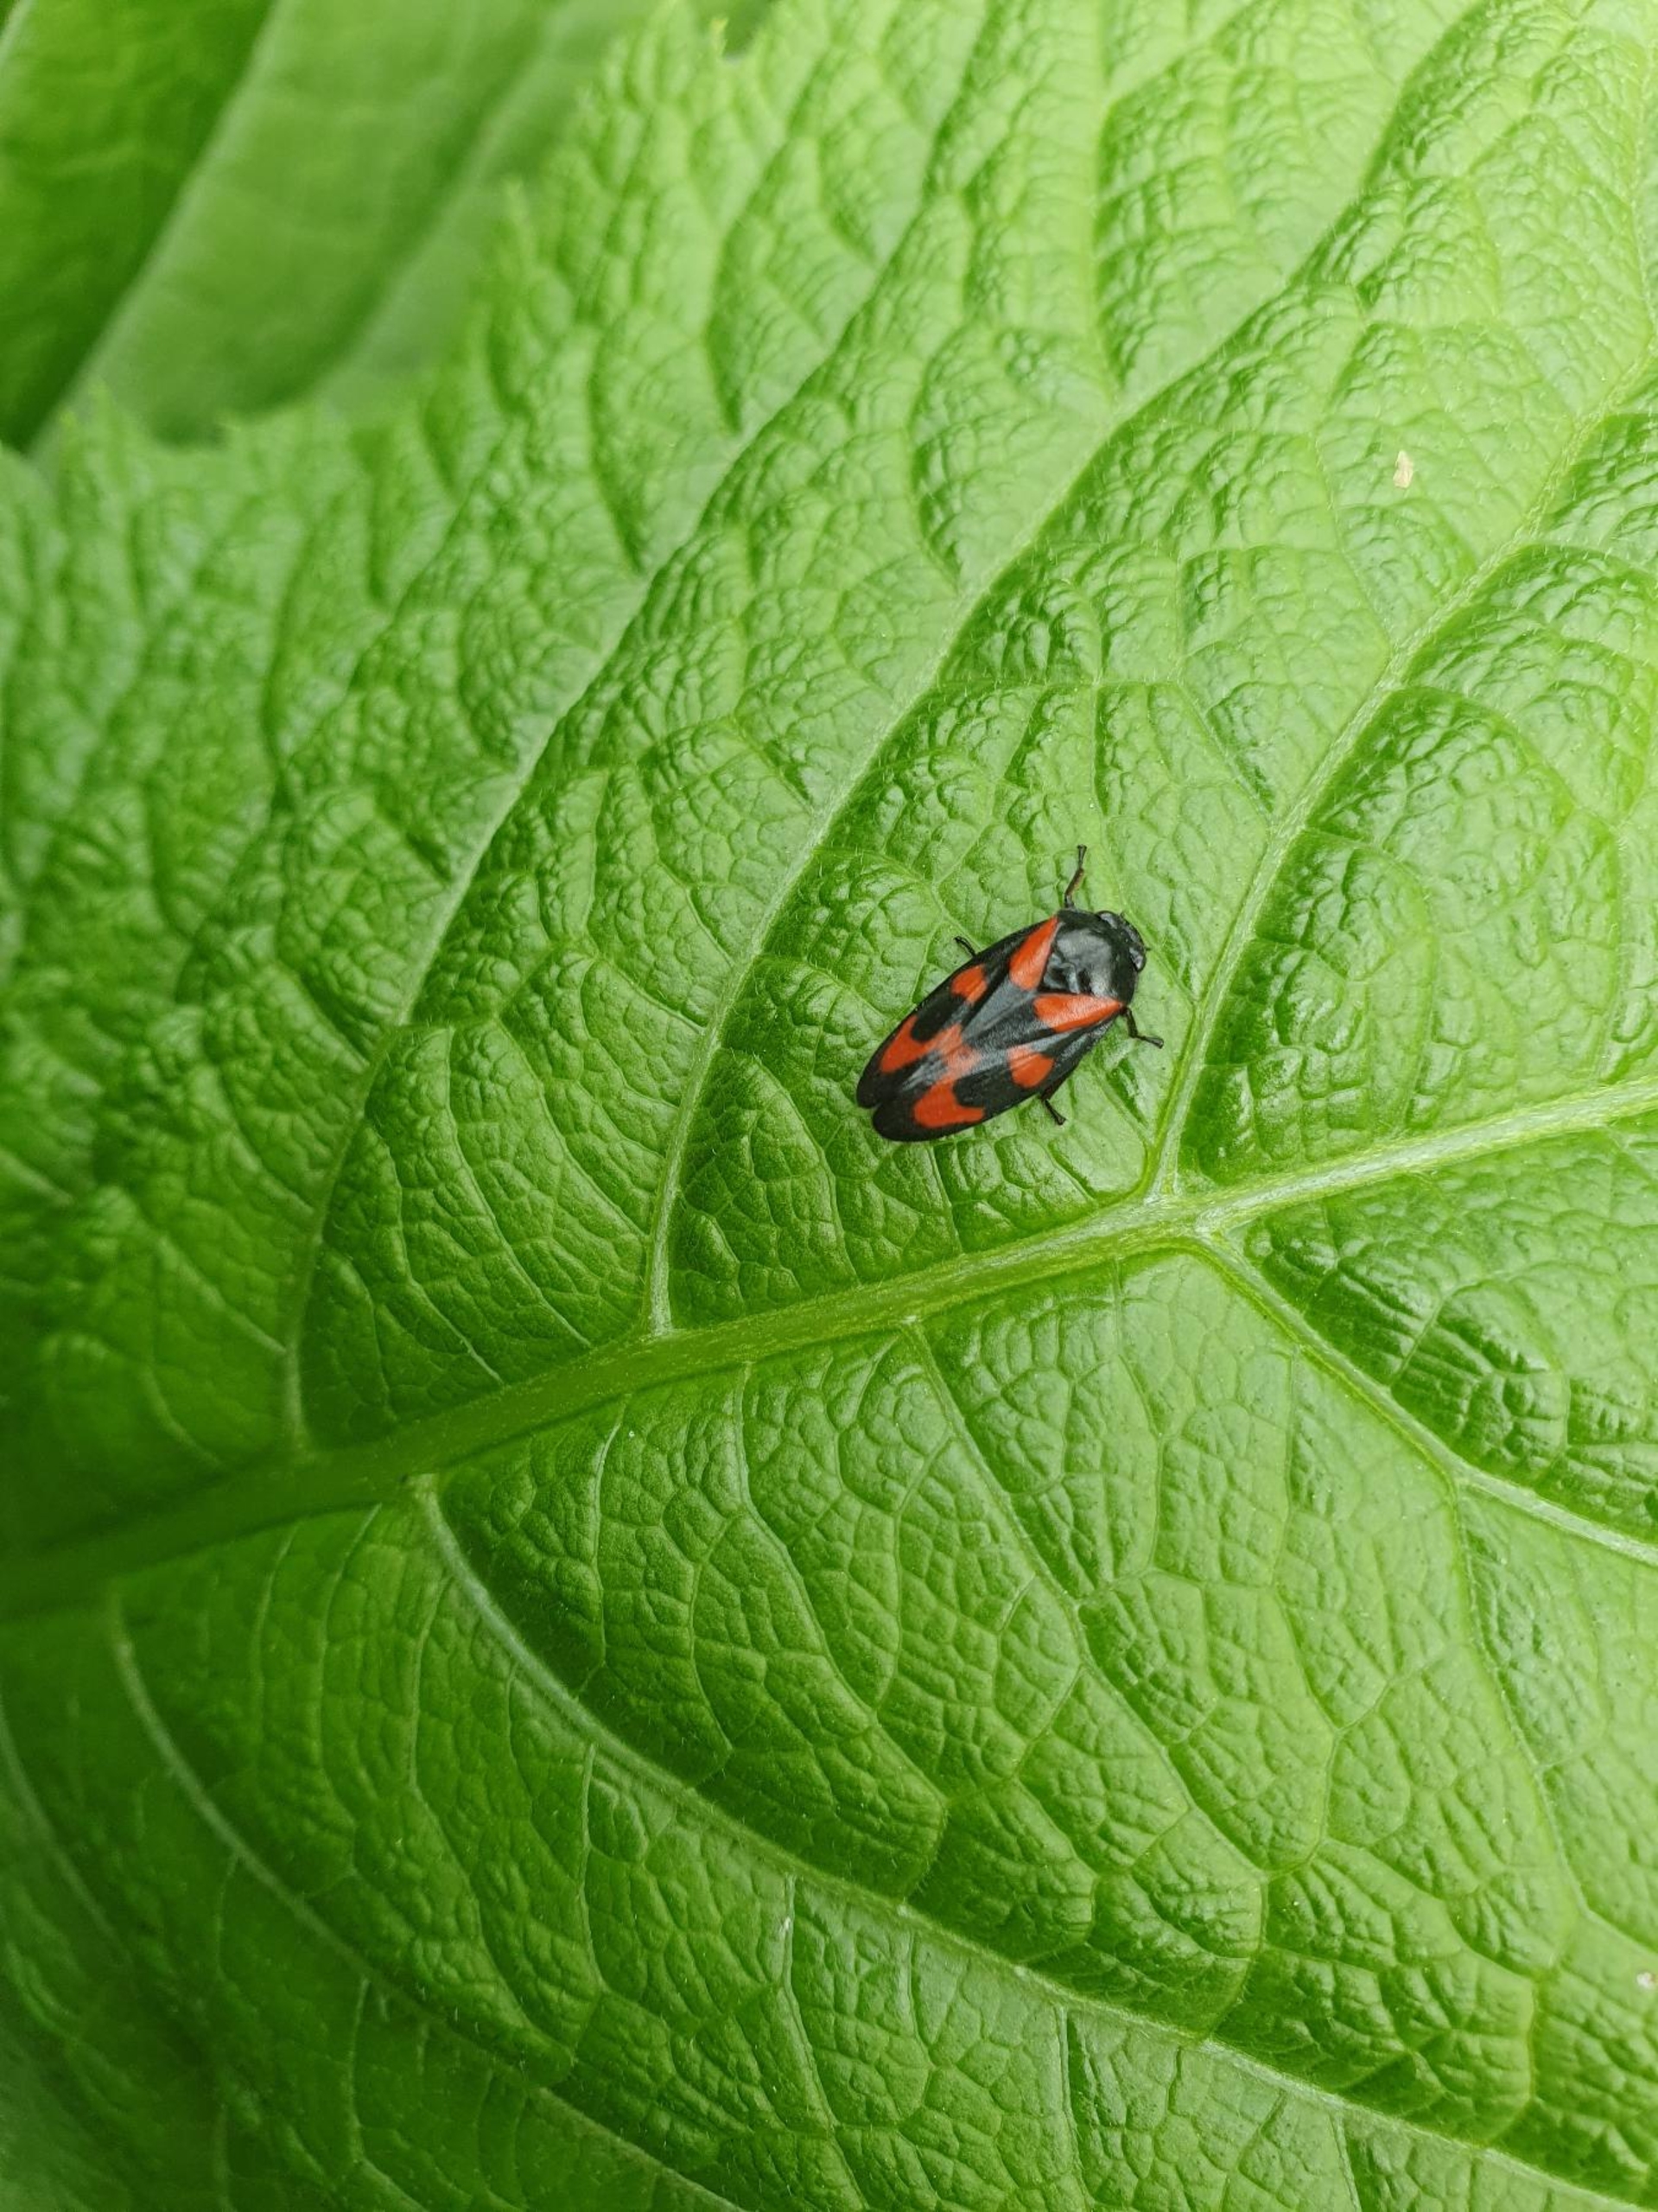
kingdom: Animalia
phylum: Arthropoda
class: Insecta
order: Hemiptera
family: Cercopidae
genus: Cercopis
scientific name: Cercopis vulnerata
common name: Blodcikade
